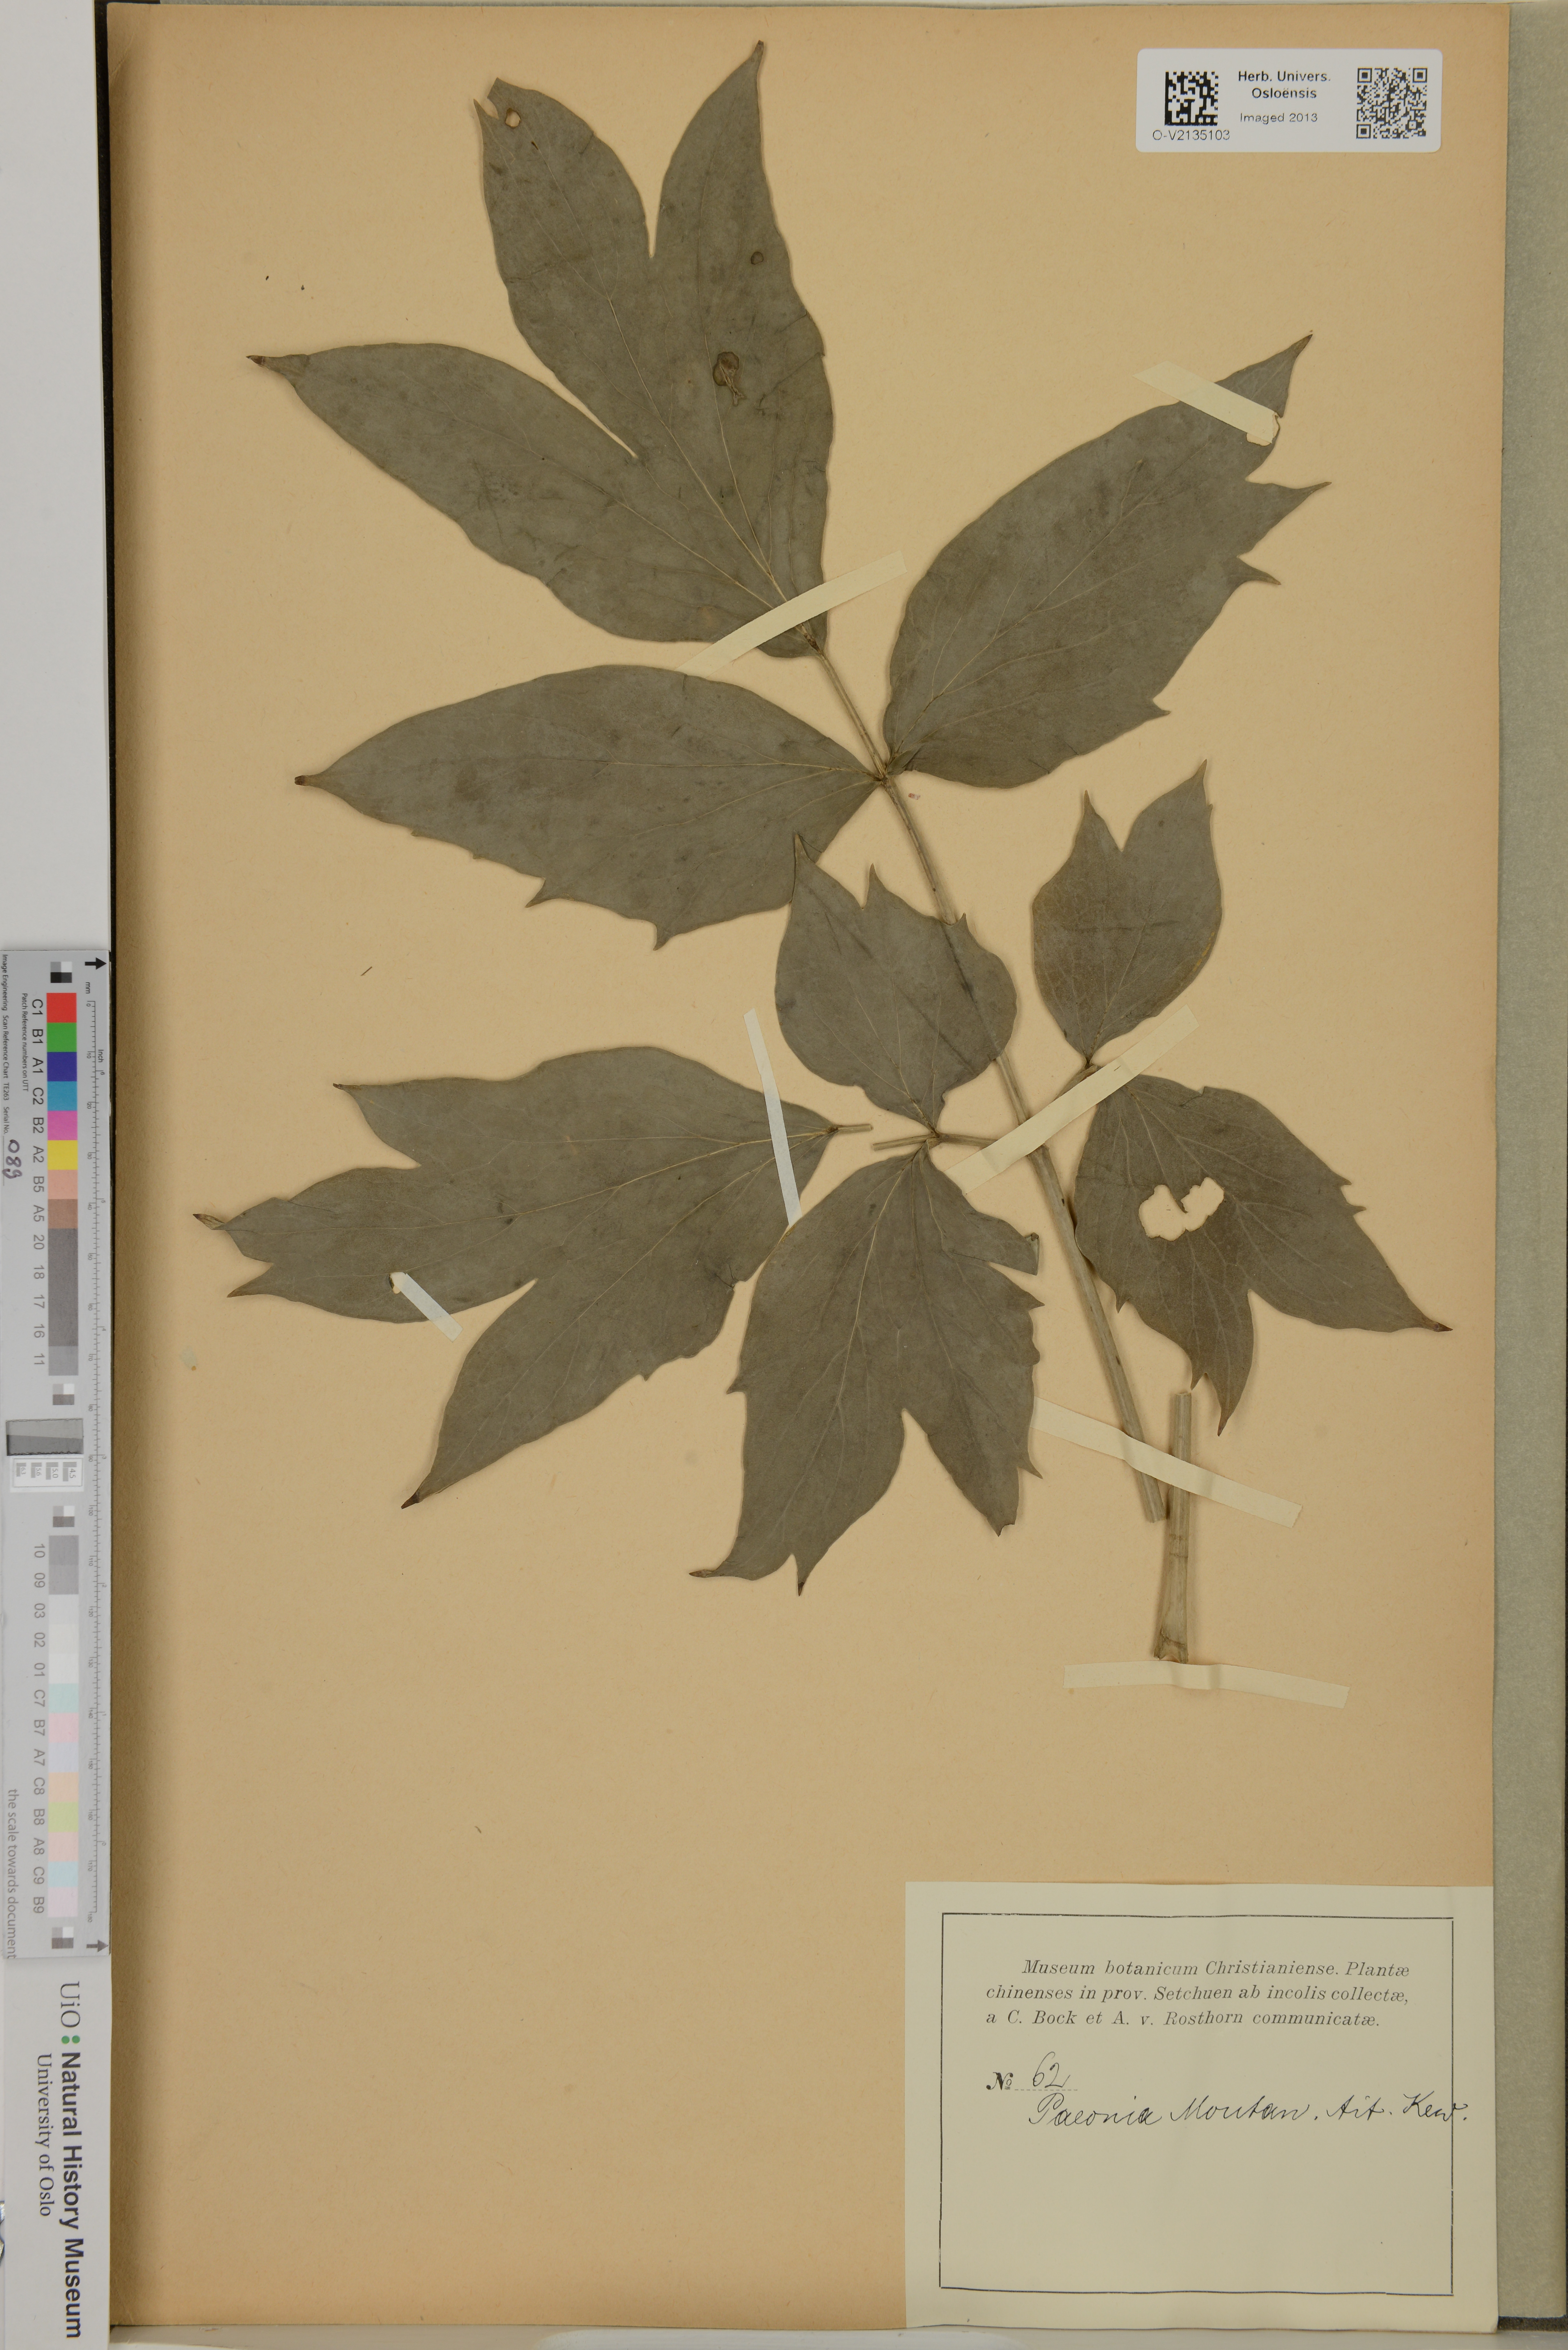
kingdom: Plantae
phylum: Tracheophyta
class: Magnoliopsida
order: Saxifragales
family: Paeoniaceae
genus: Paeonia
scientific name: Paeonia suffruticosa
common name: Moutan peony
